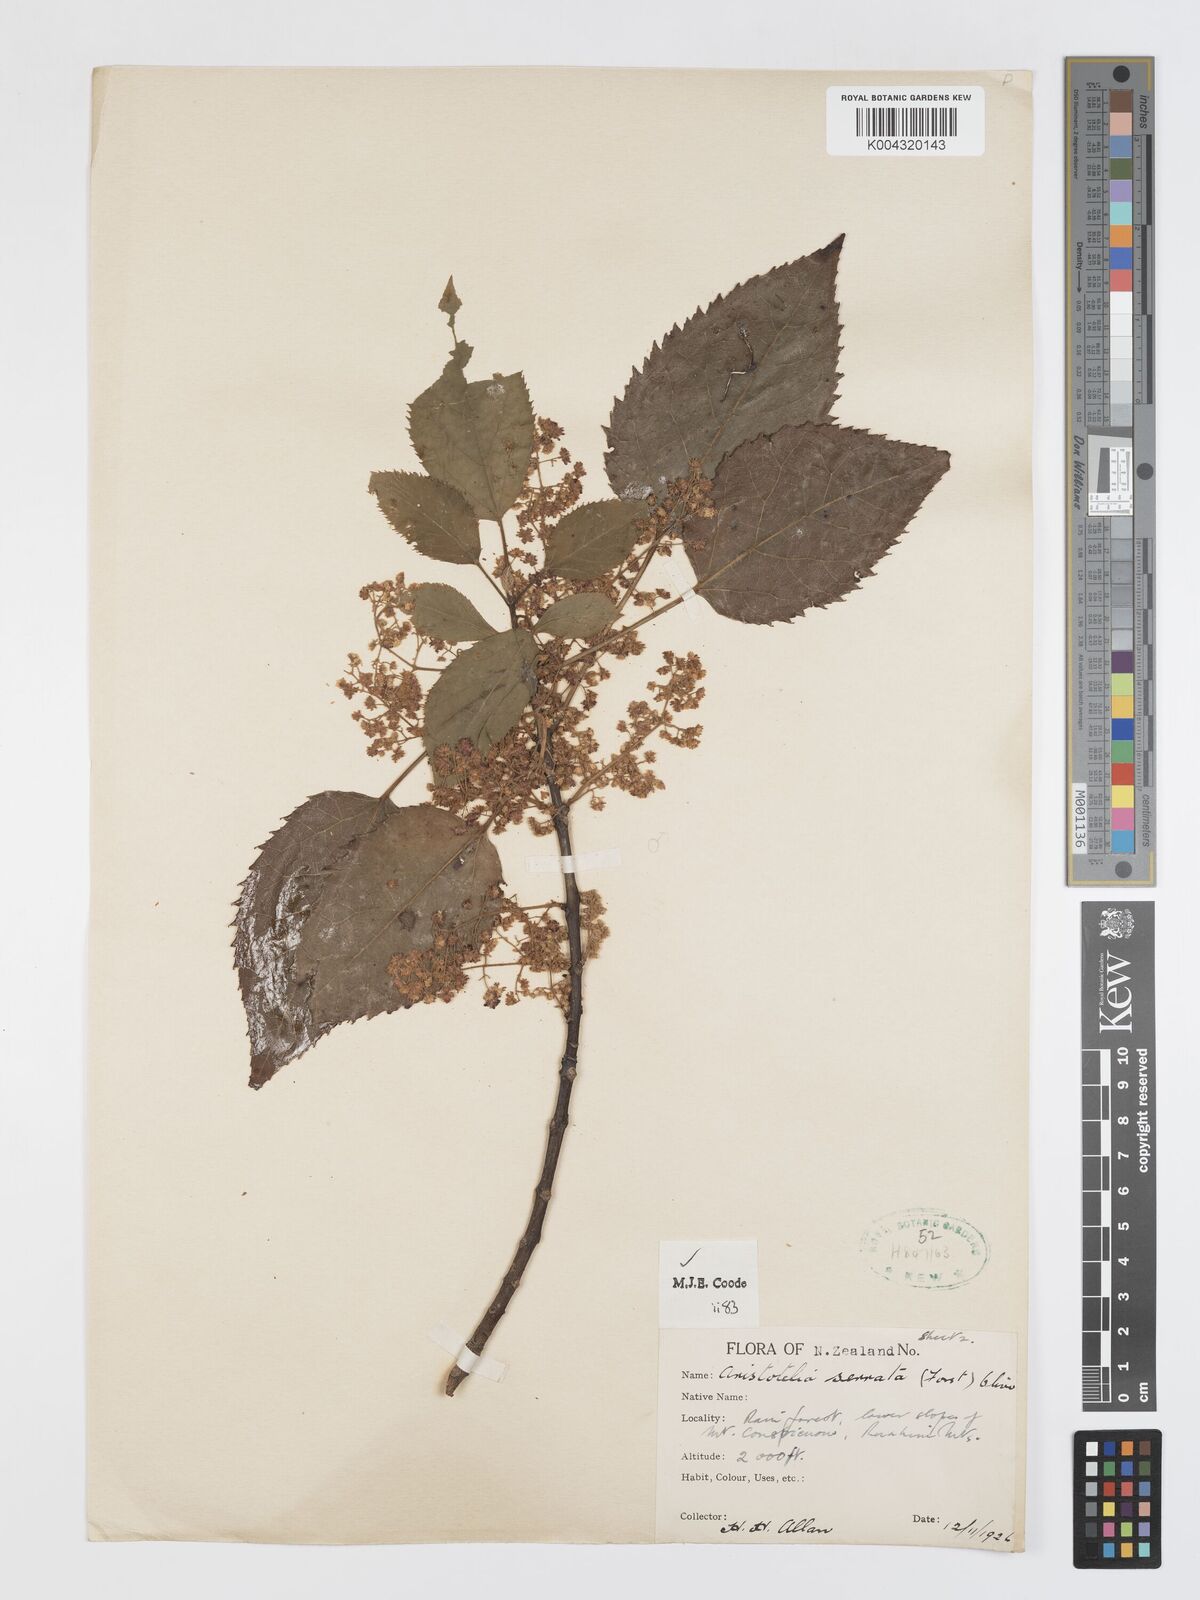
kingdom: Plantae
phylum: Tracheophyta
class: Magnoliopsida
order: Oxalidales
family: Elaeocarpaceae
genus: Aristotelia
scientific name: Aristotelia serrata
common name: New zealand wineberry
